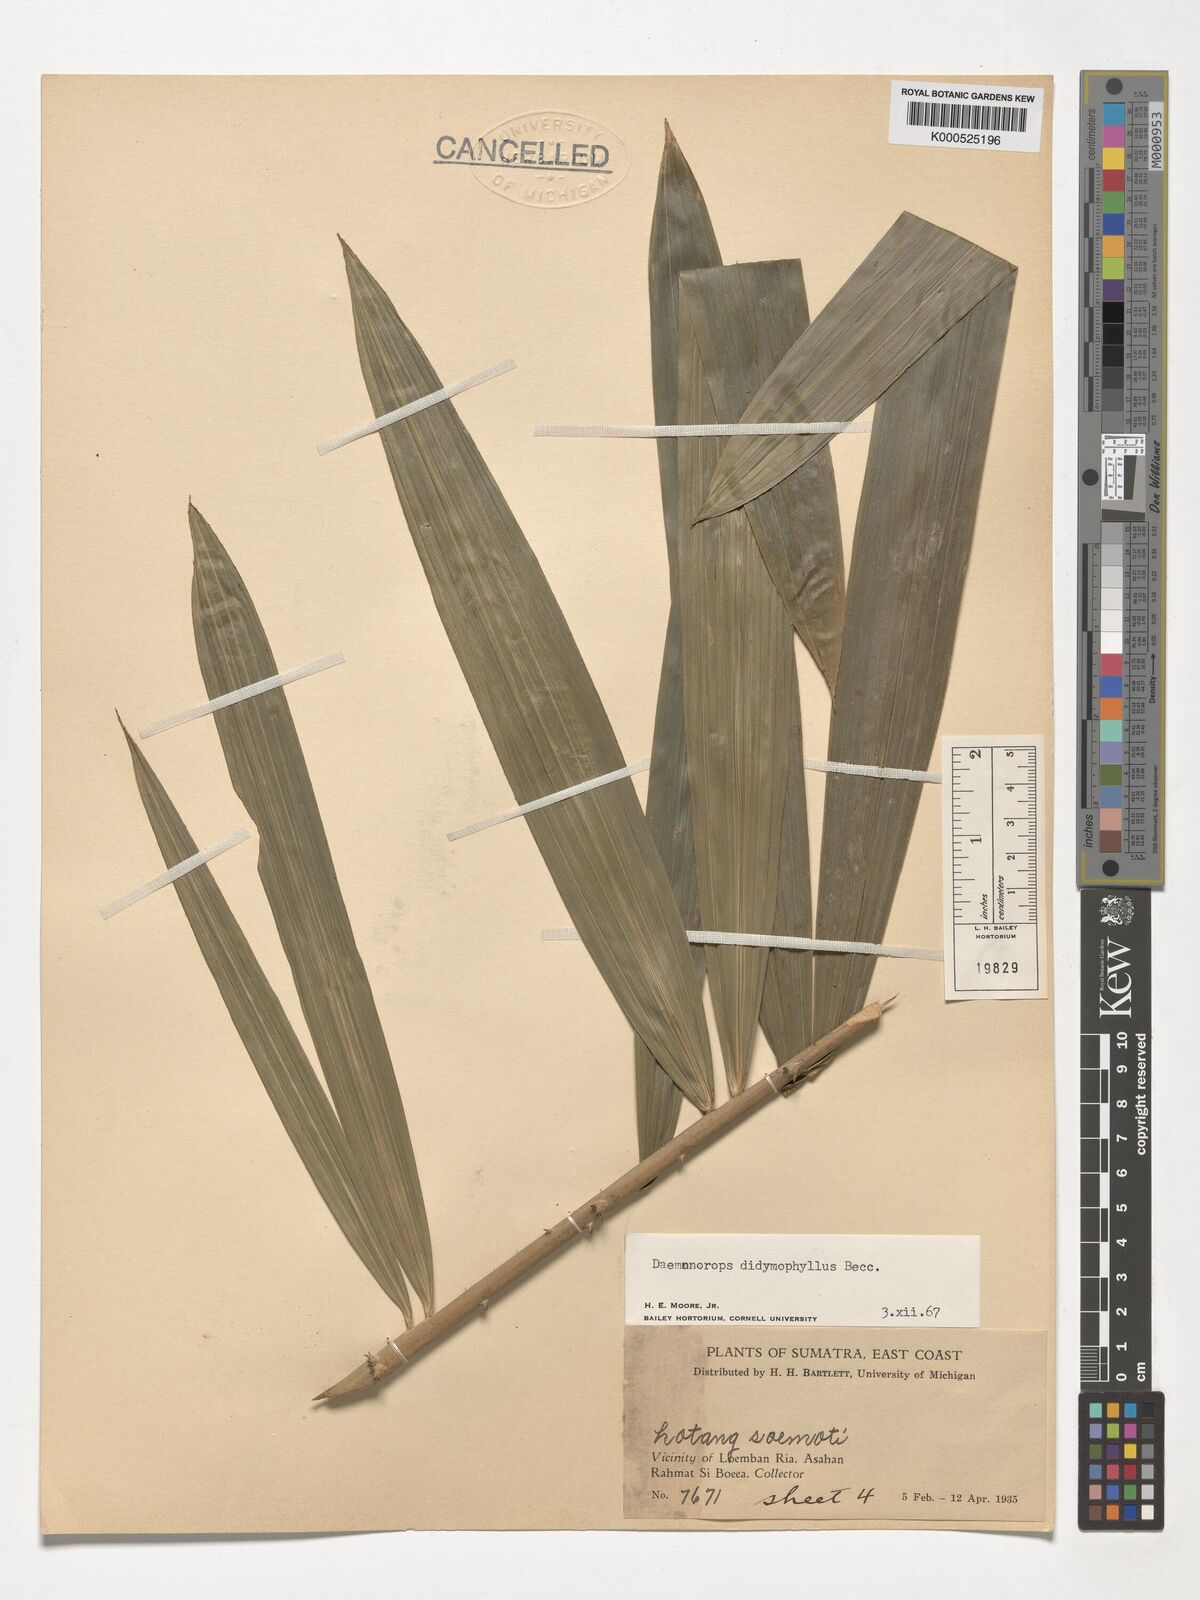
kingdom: Plantae
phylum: Tracheophyta
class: Liliopsida
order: Arecales
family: Arecaceae
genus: Calamus
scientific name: Calamus gracilipes
